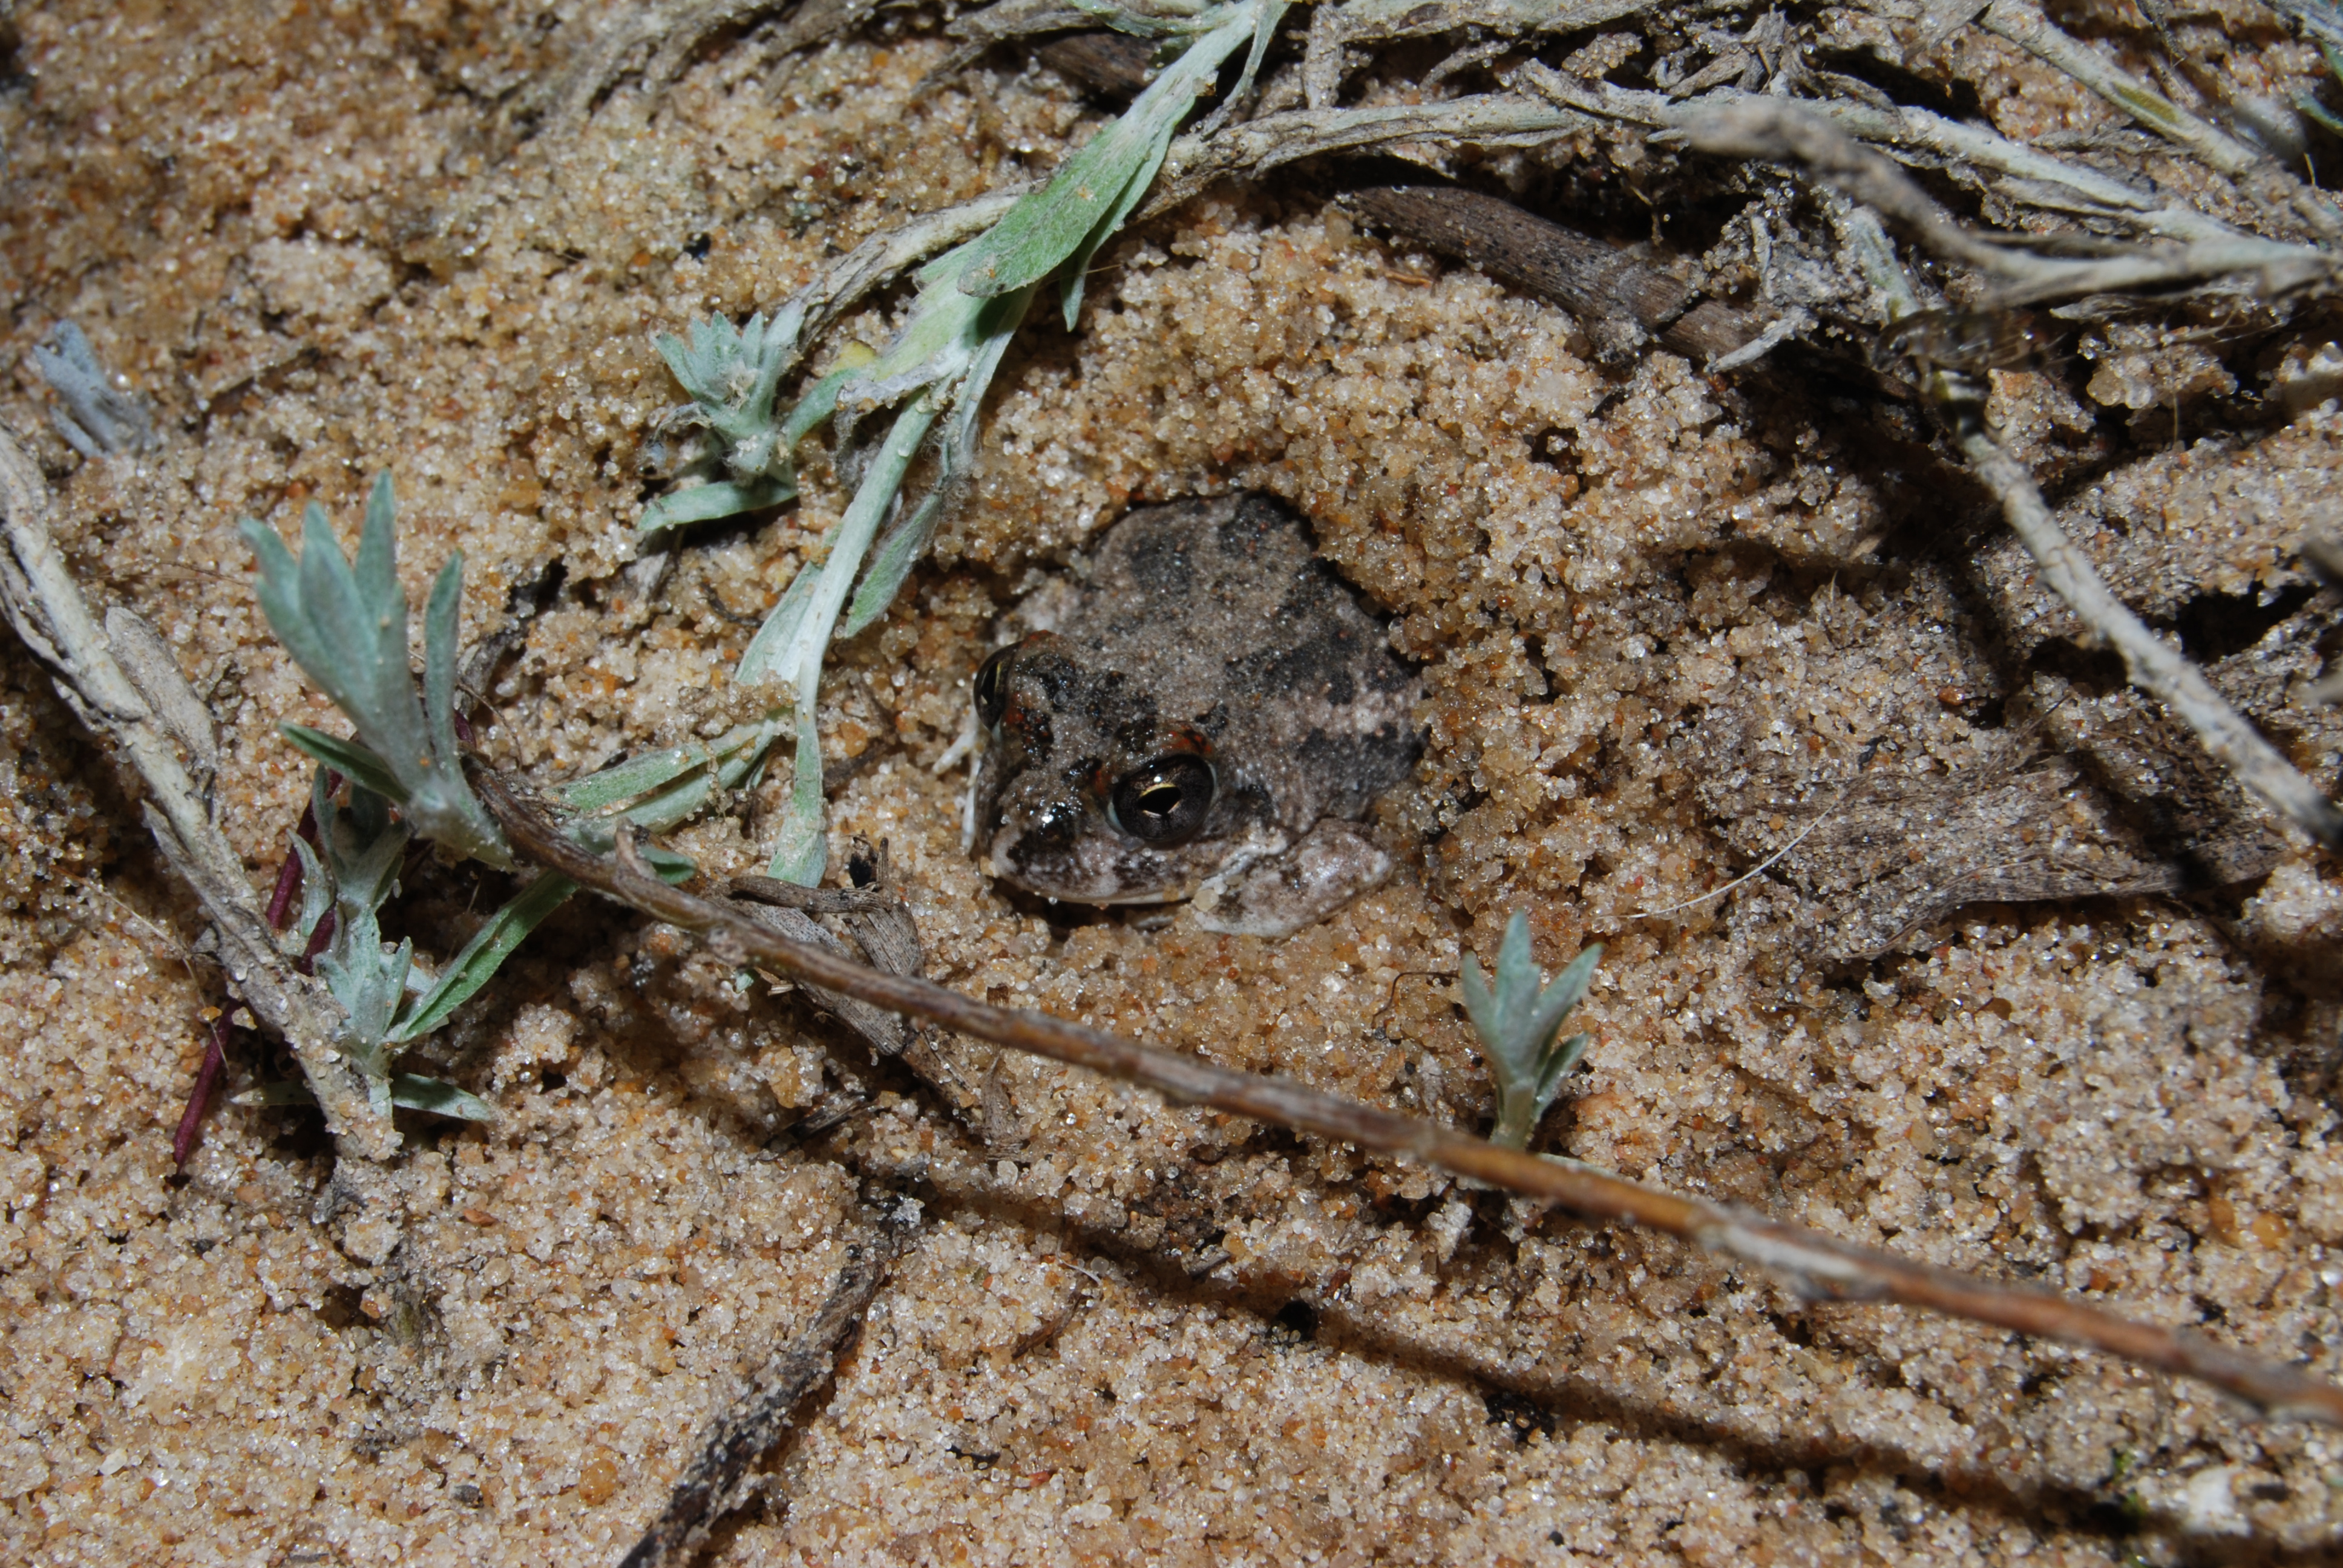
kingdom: Animalia
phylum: Chordata
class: Amphibia
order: Anura
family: Pyxicephalidae
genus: Tomopterna
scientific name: Tomopterna cryptotis
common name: Catequero bullfrog
